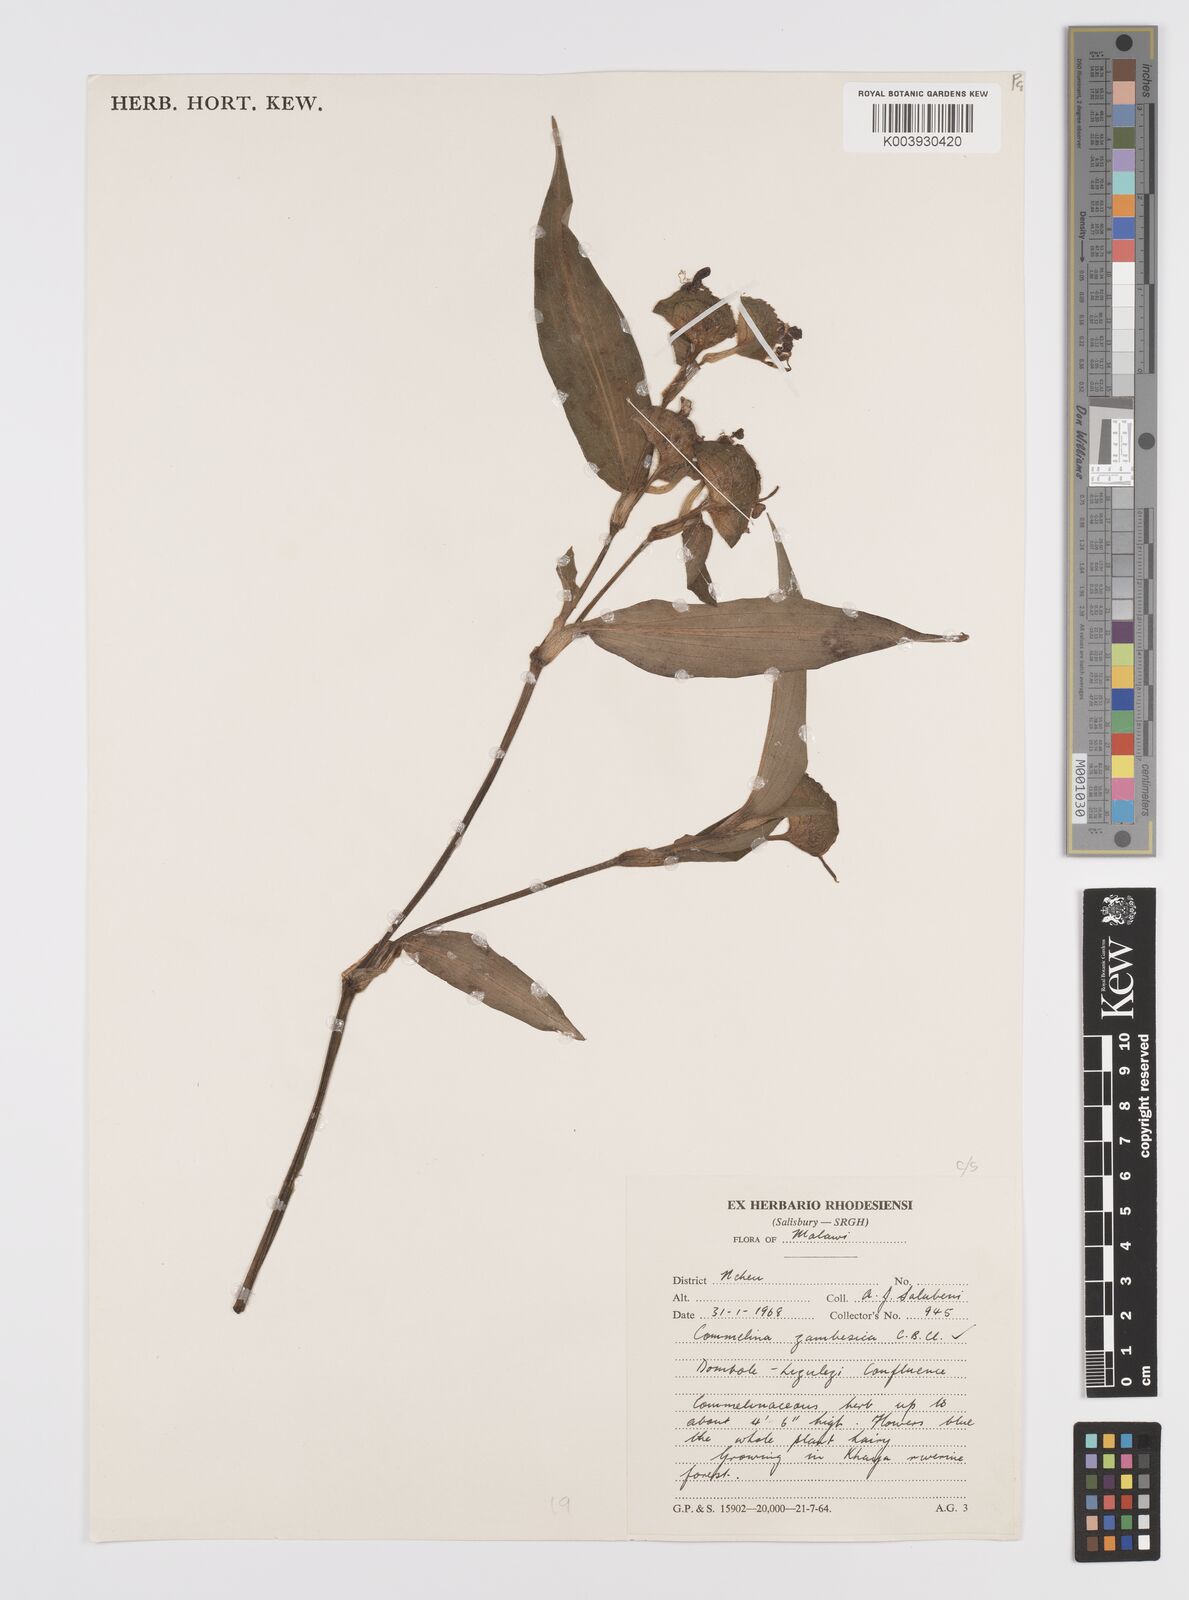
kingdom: Plantae
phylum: Tracheophyta
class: Liliopsida
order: Commelinales
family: Commelinaceae
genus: Commelina
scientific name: Commelina zambesica
